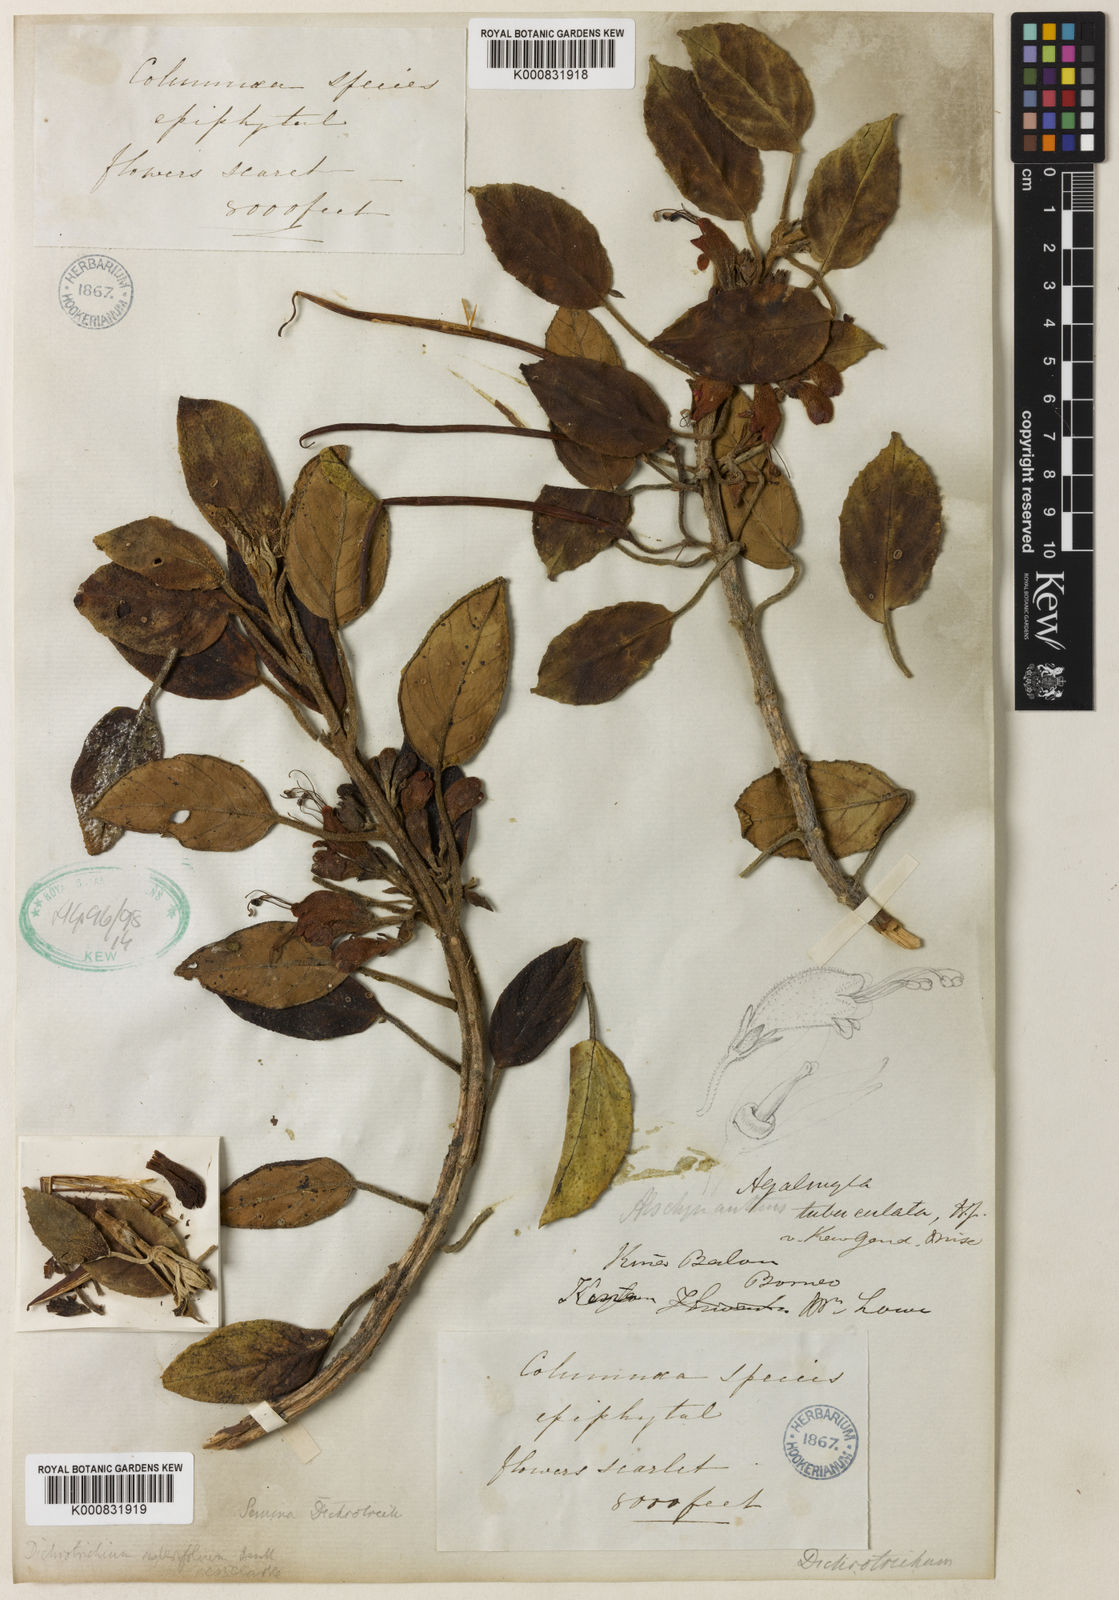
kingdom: Plantae
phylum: Tracheophyta
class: Magnoliopsida
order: Lamiales
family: Gesneriaceae
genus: Agalmyla
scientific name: Agalmyla tuberculata
